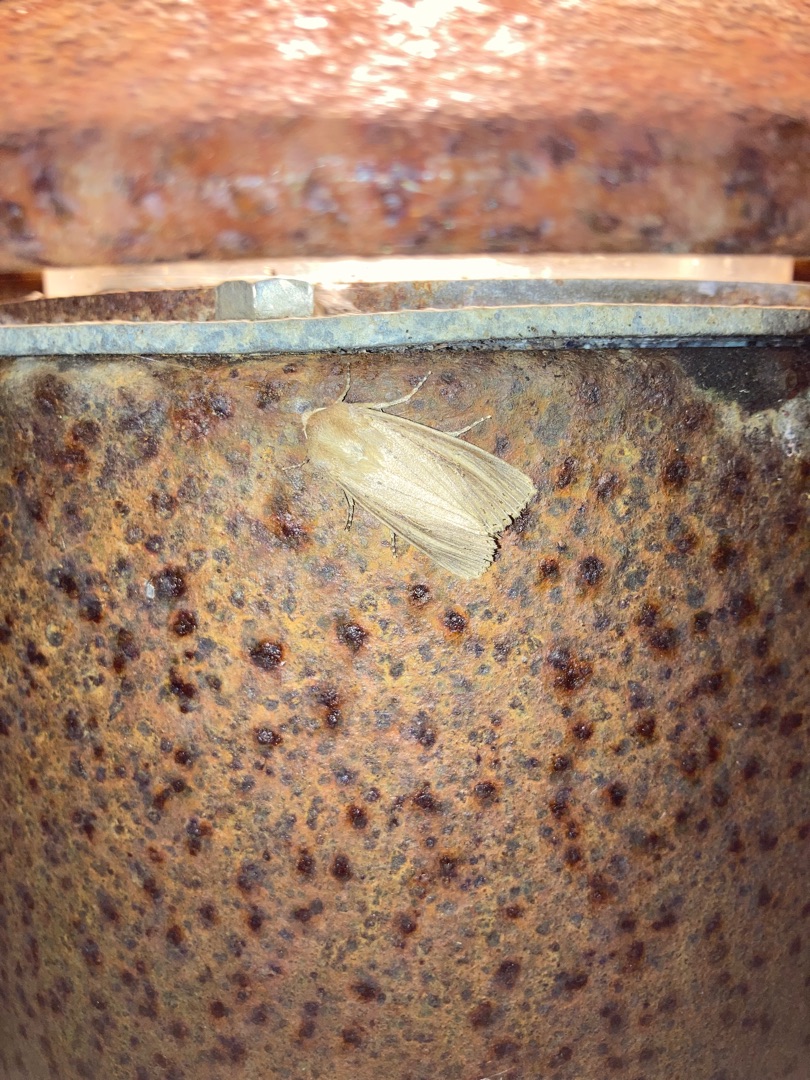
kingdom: Animalia
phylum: Arthropoda
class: Insecta
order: Lepidoptera
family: Noctuidae
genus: Nonagria
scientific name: Nonagria typhae
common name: Stor rørugle
